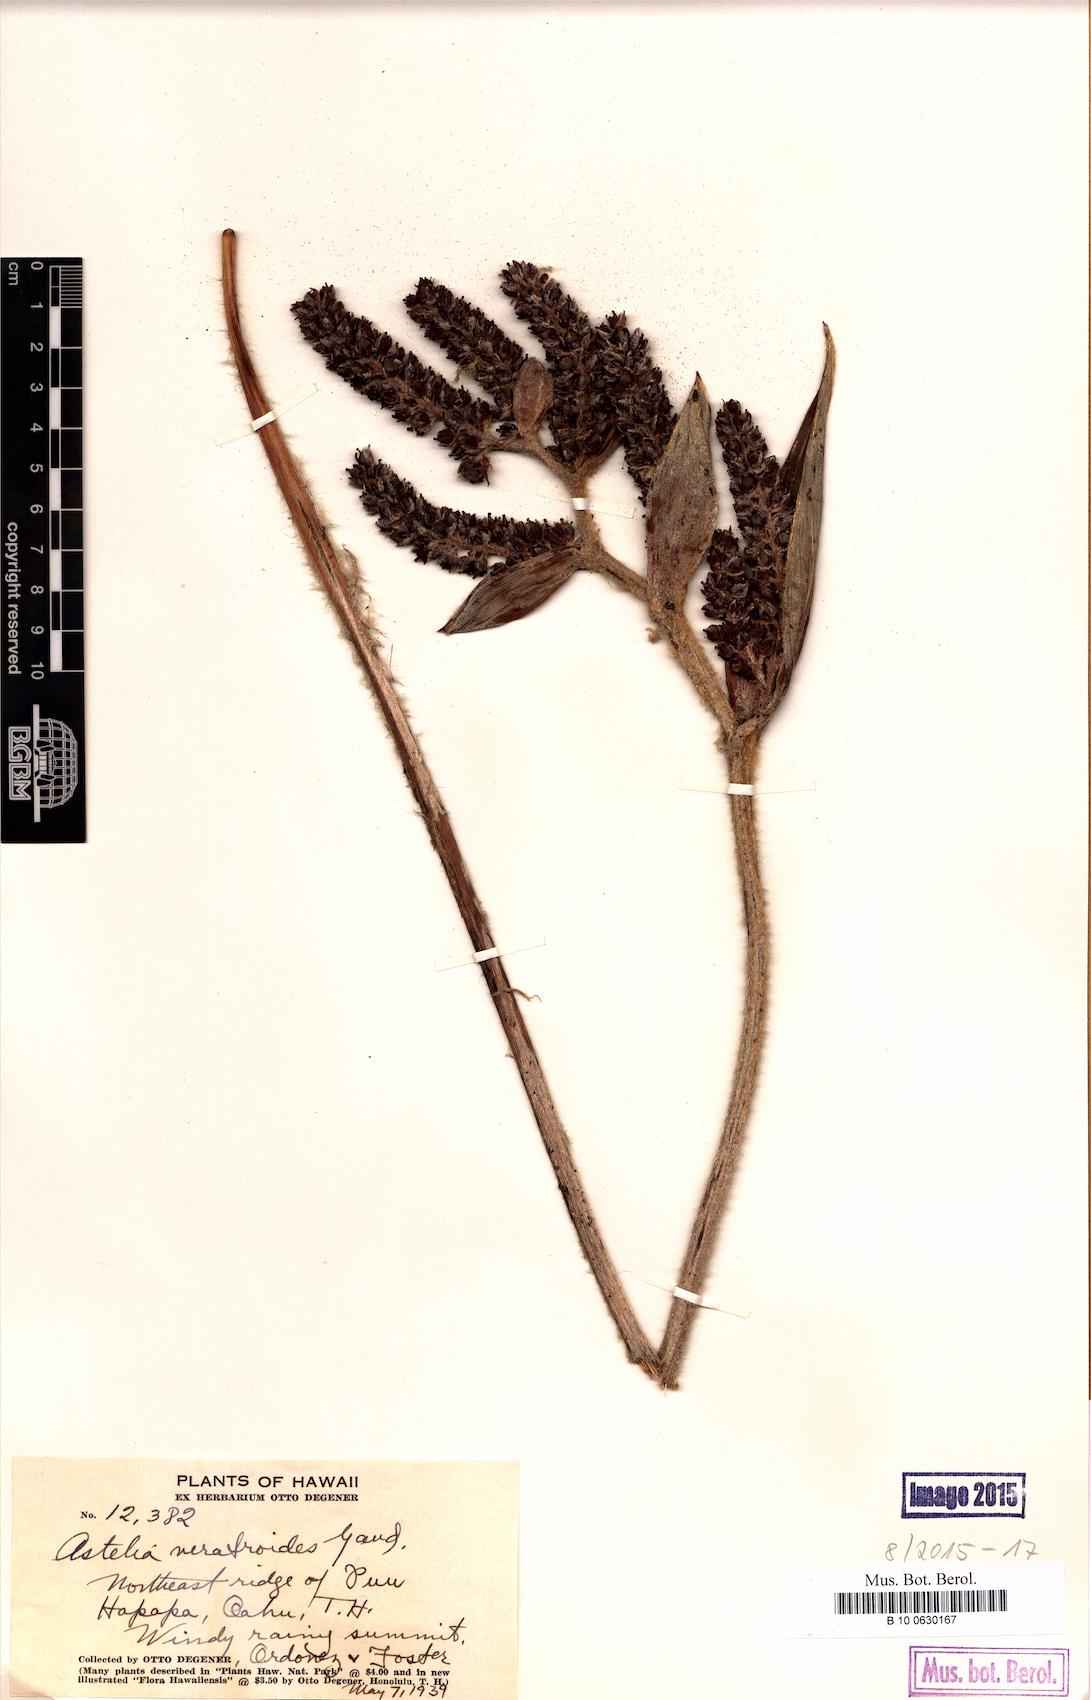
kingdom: Plantae
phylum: Tracheophyta
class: Liliopsida
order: Asparagales
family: Asteliaceae
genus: Astelia
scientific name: Astelia menziesiana
